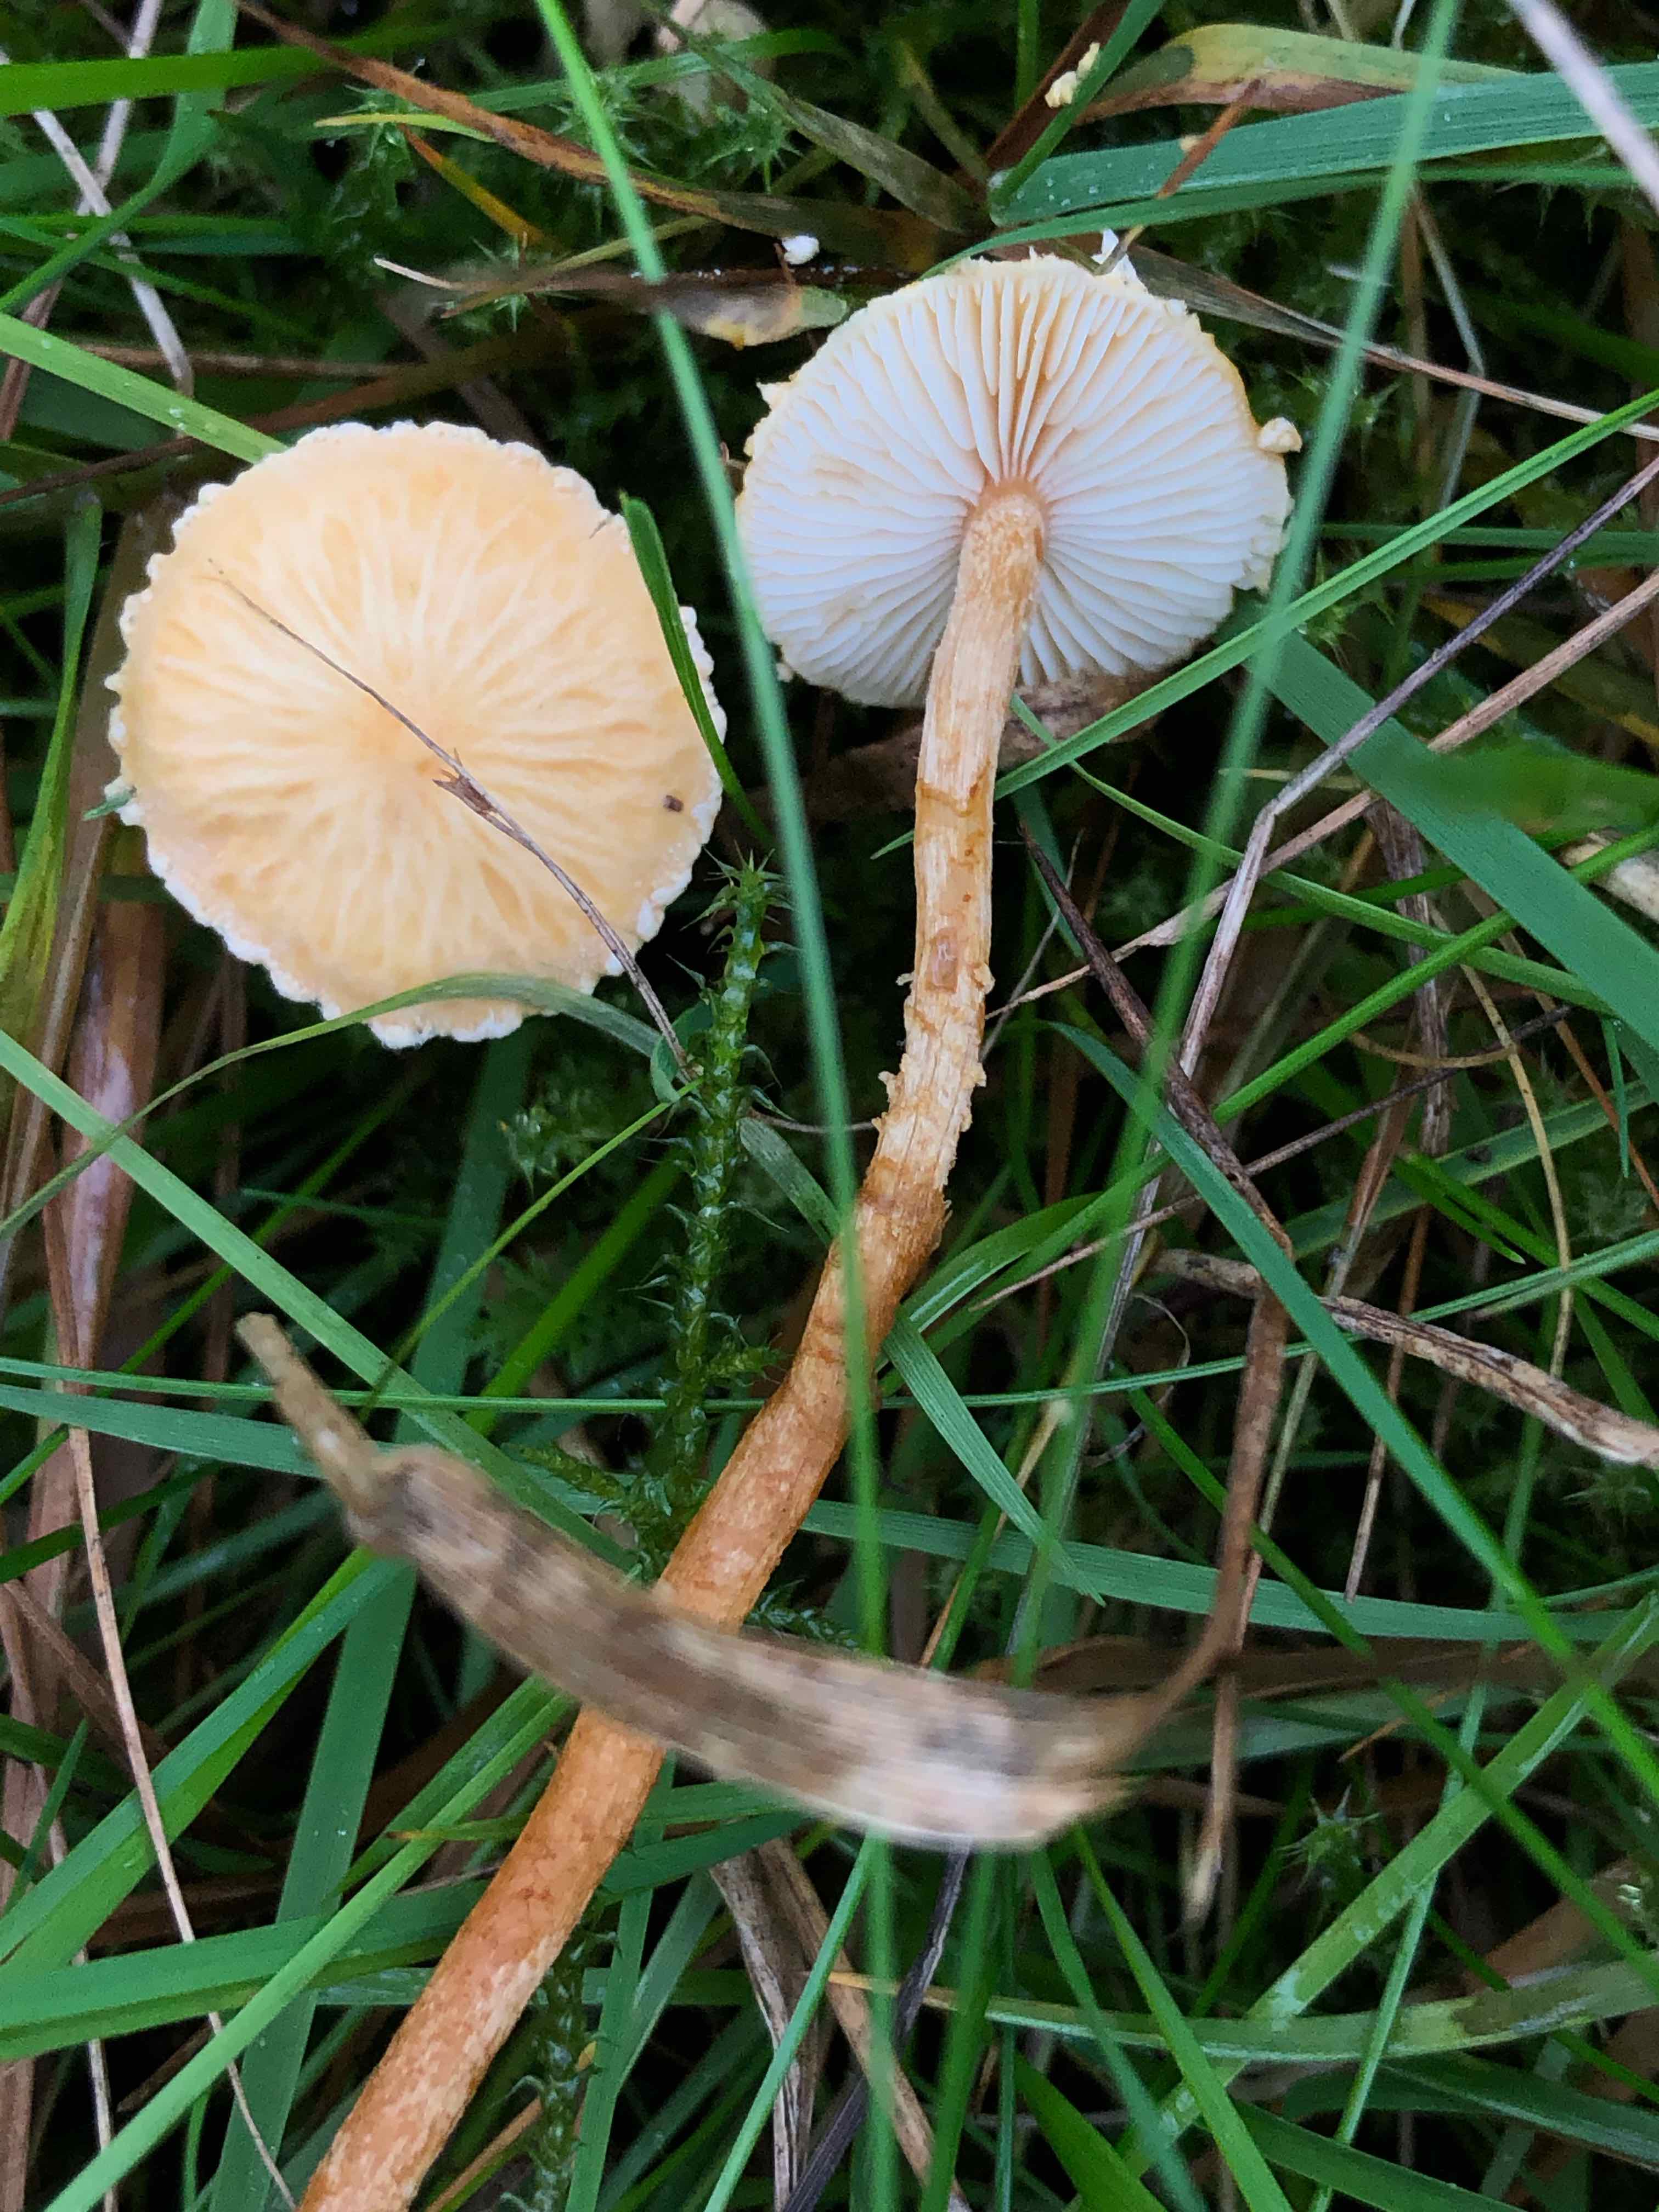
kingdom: Fungi
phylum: Basidiomycota
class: Agaricomycetes
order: Agaricales
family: Tricholomataceae
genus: Cystoderma
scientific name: Cystoderma amianthinum
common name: okkergul grynhat
